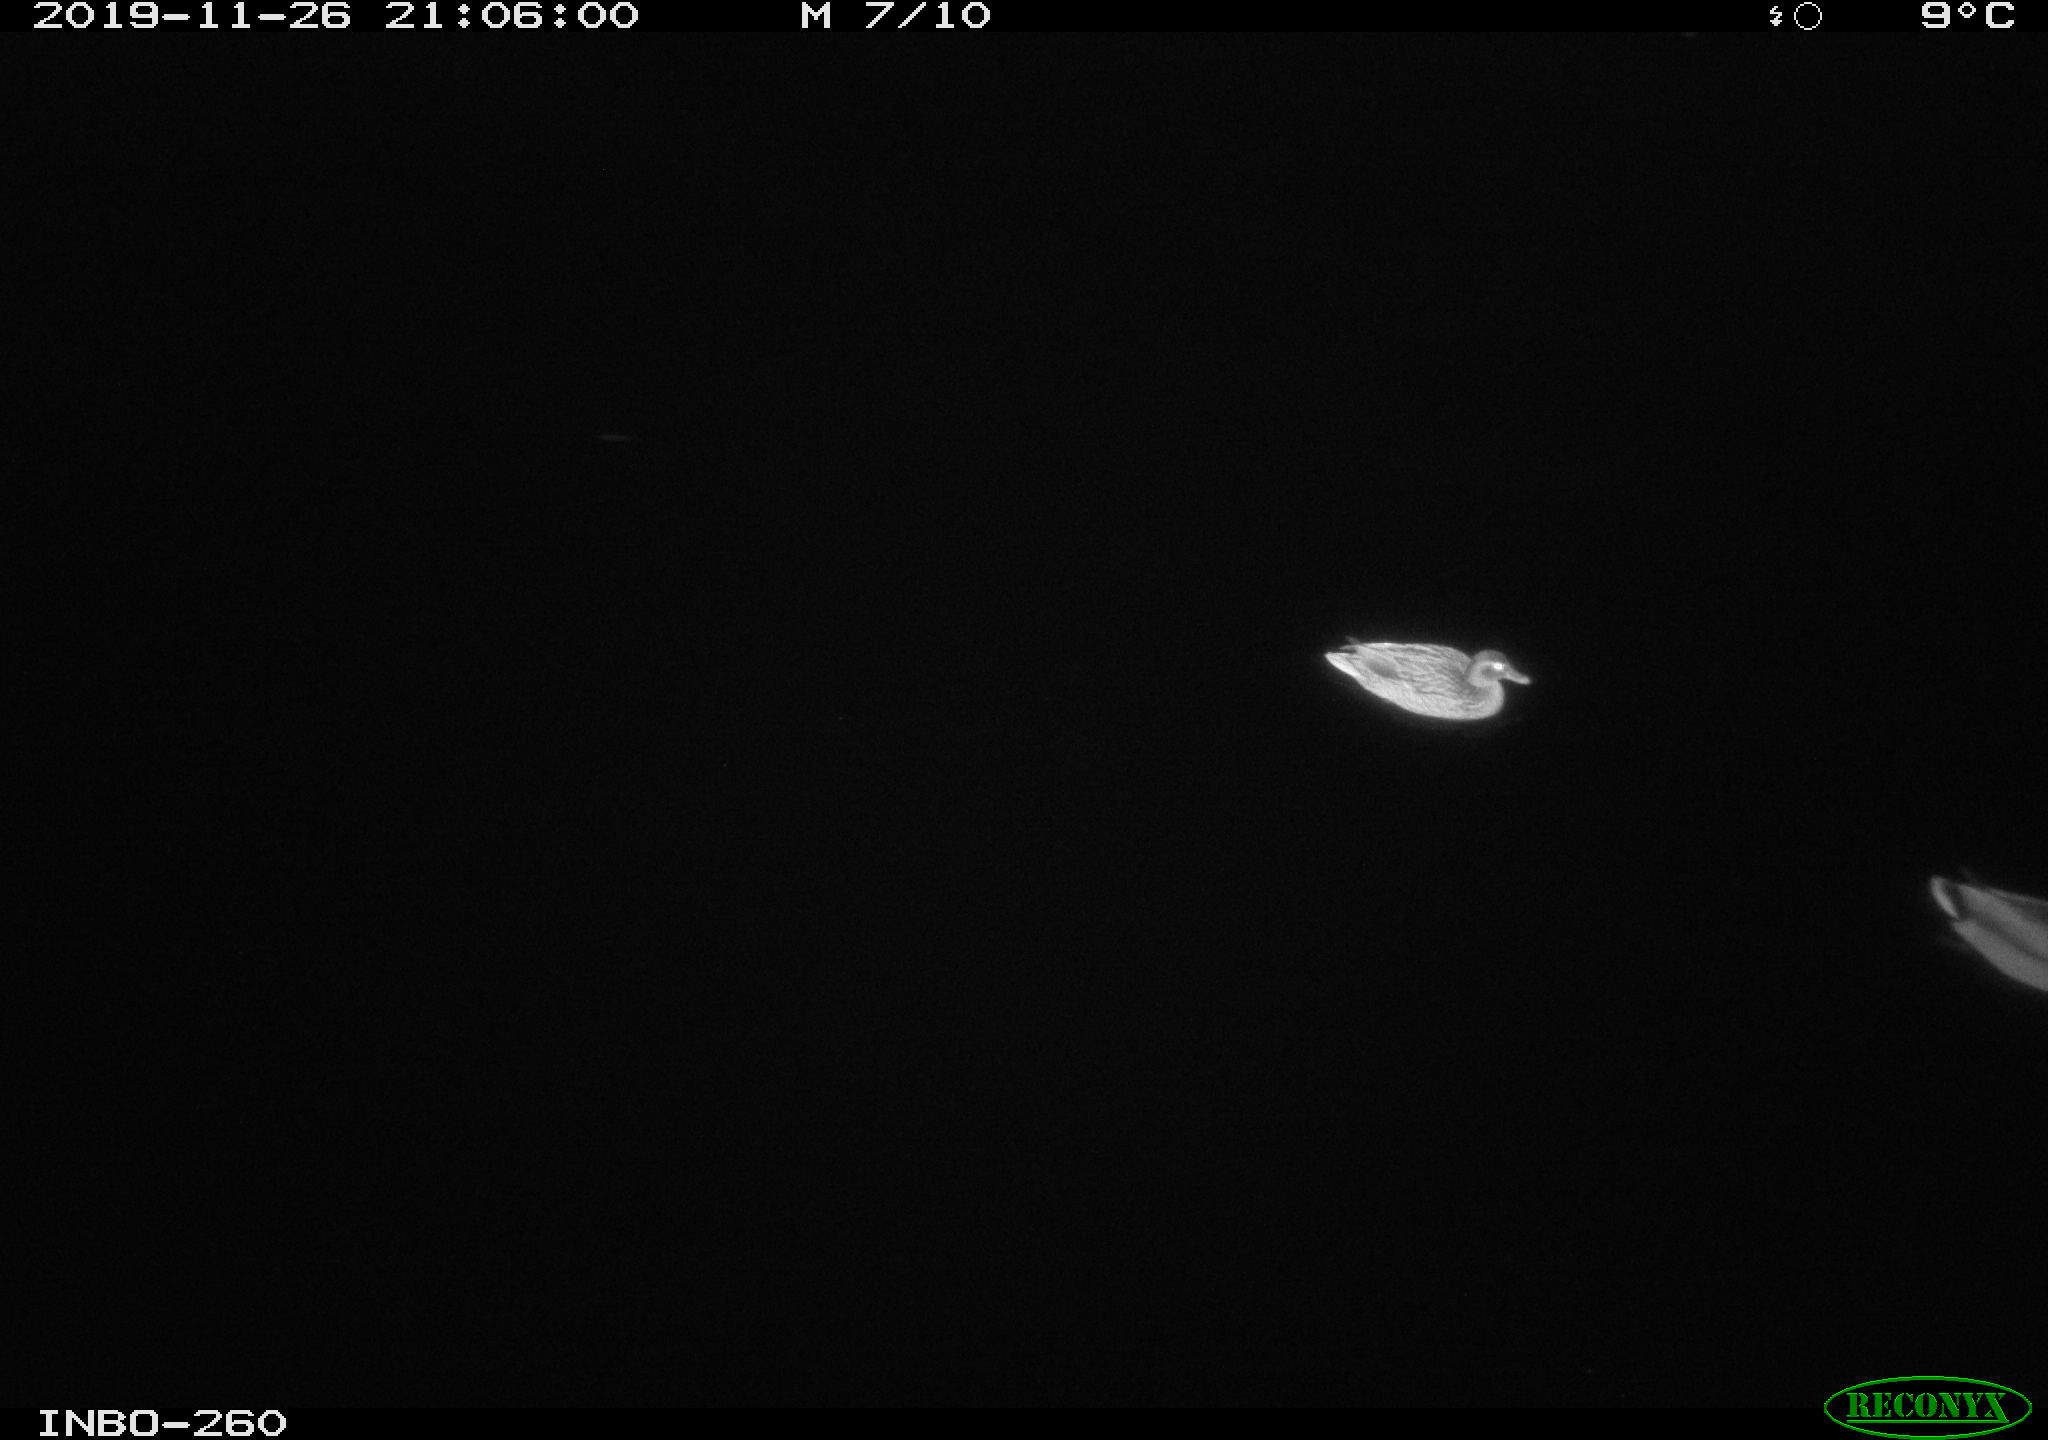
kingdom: Animalia
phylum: Chordata
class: Aves
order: Anseriformes
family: Anatidae
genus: Anas
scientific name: Anas platyrhynchos
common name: Mallard
